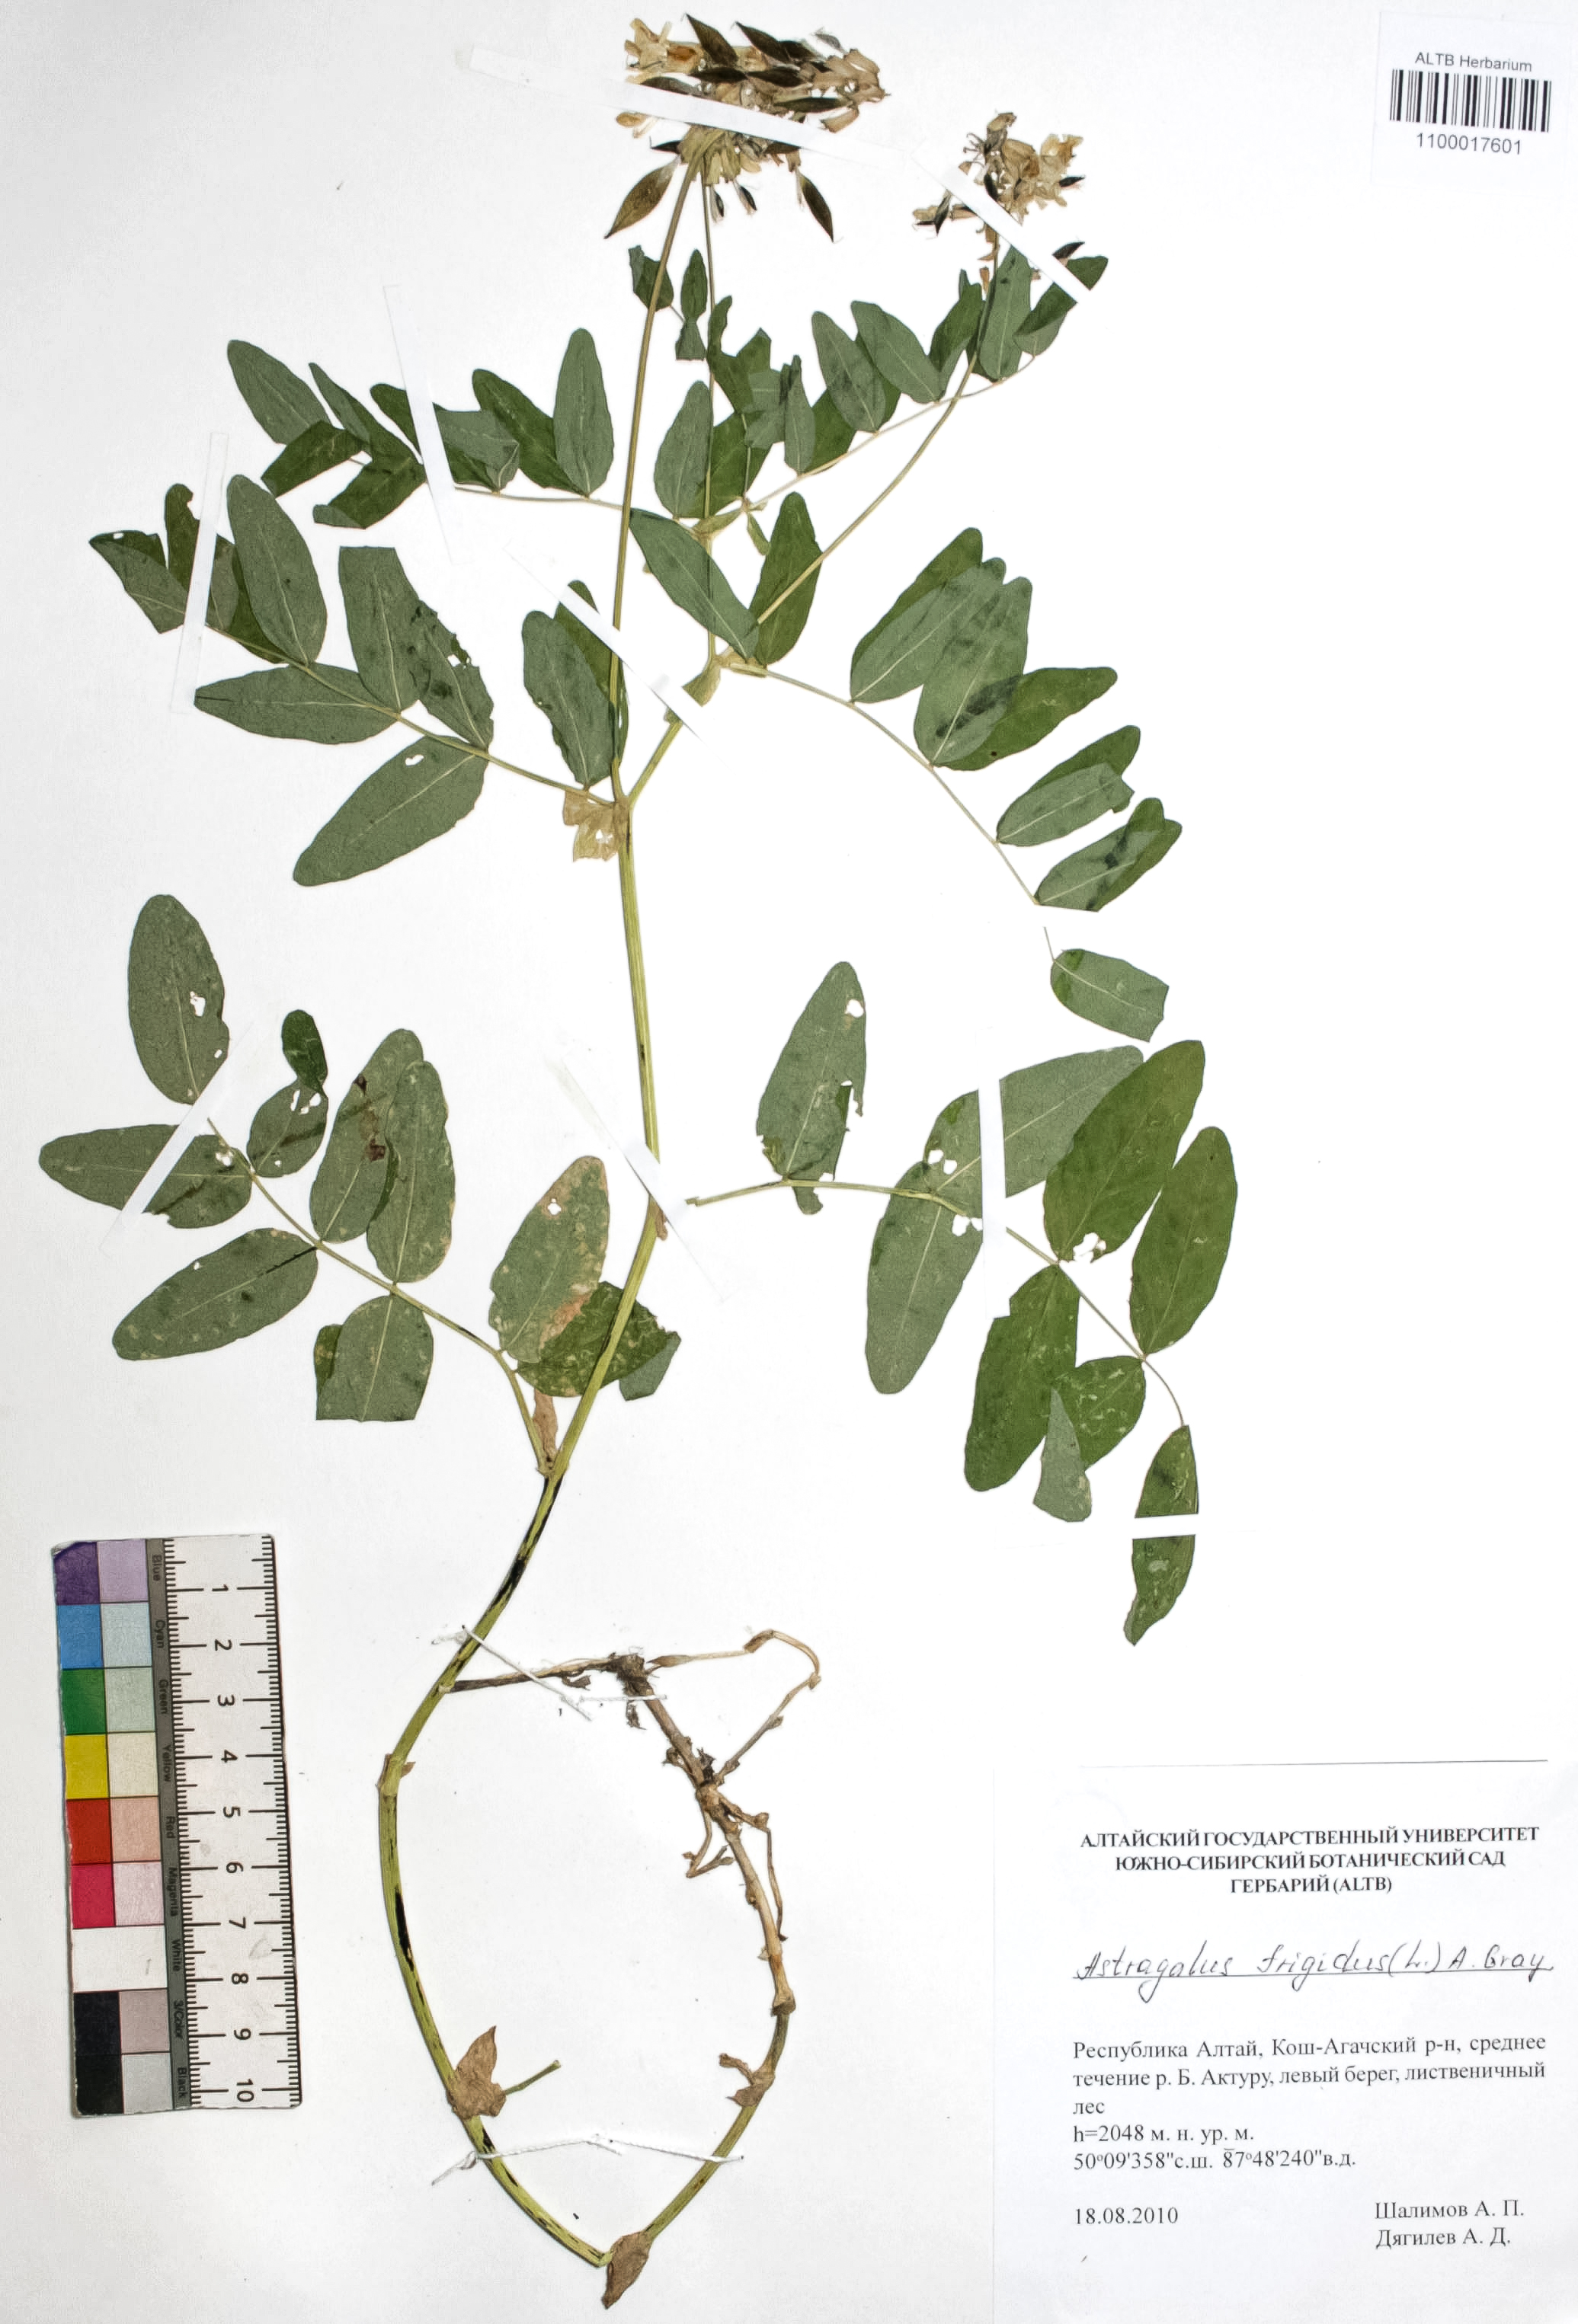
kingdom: Plantae
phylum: Tracheophyta
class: Magnoliopsida
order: Fabales
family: Fabaceae
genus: Astragalus
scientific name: Astragalus frigidus
